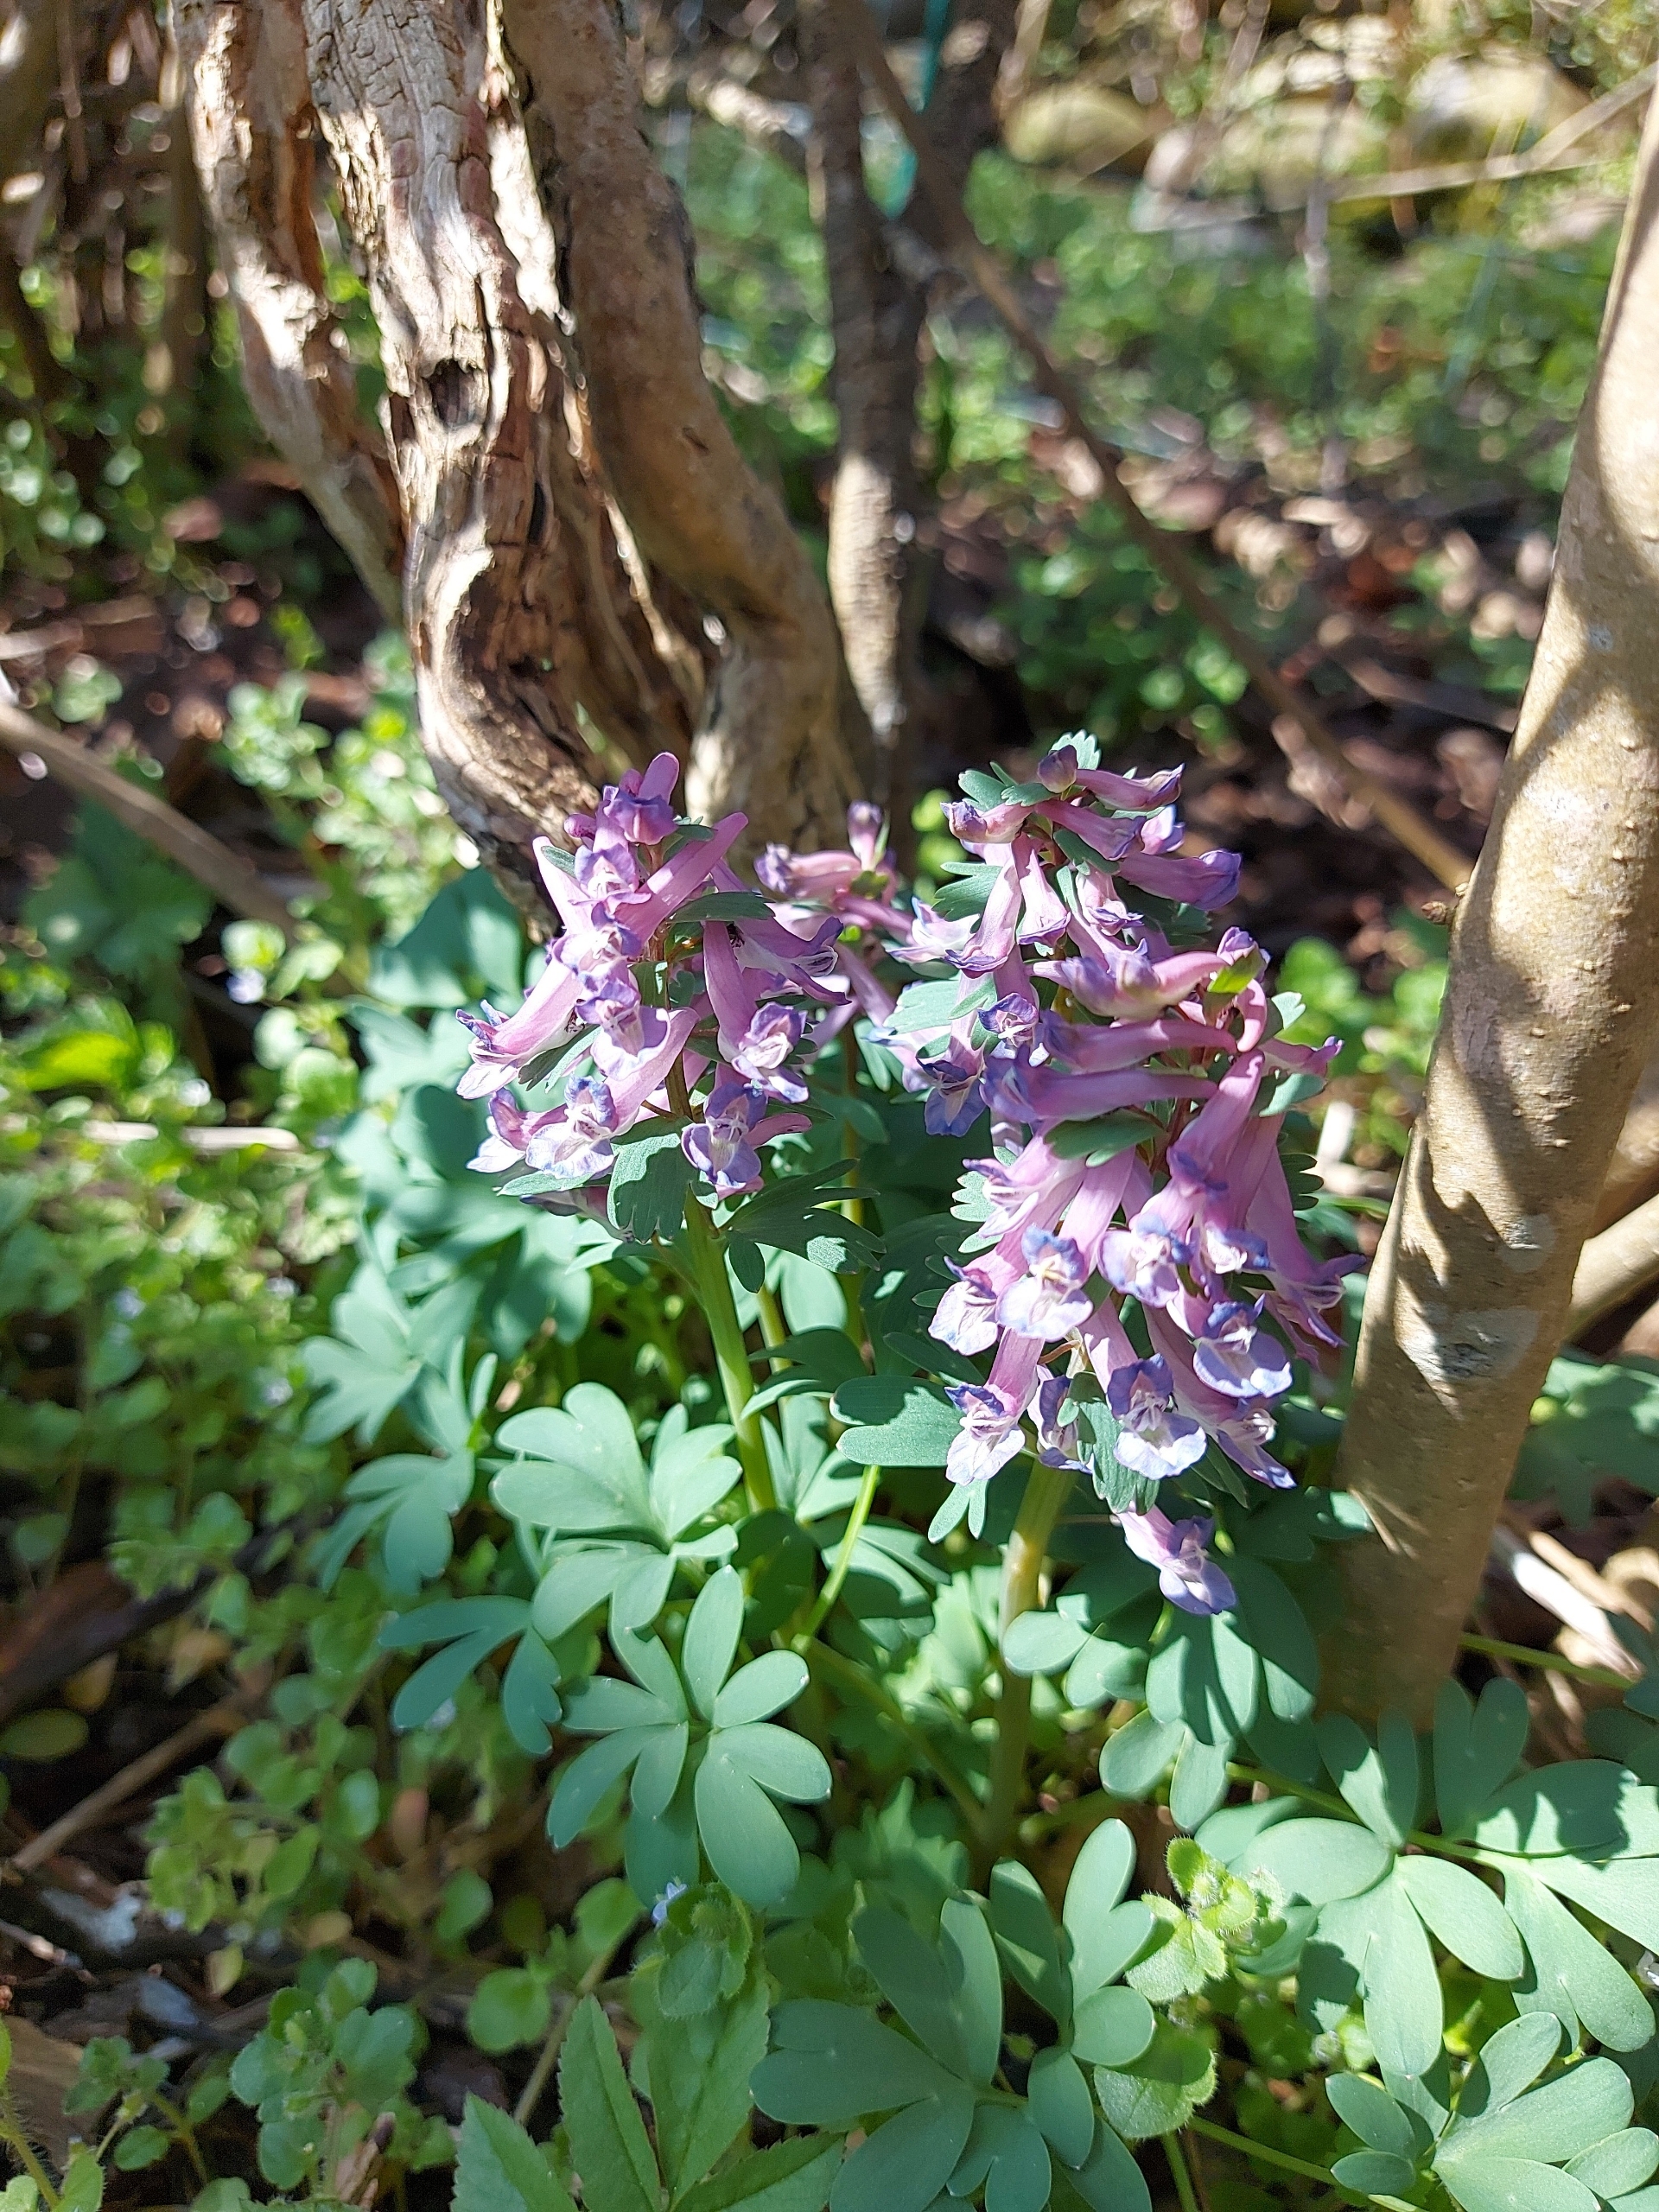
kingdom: Plantae
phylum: Tracheophyta
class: Magnoliopsida
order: Ranunculales
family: Papaveraceae
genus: Corydalis
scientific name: Corydalis solida
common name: Langstilket lærkespore
